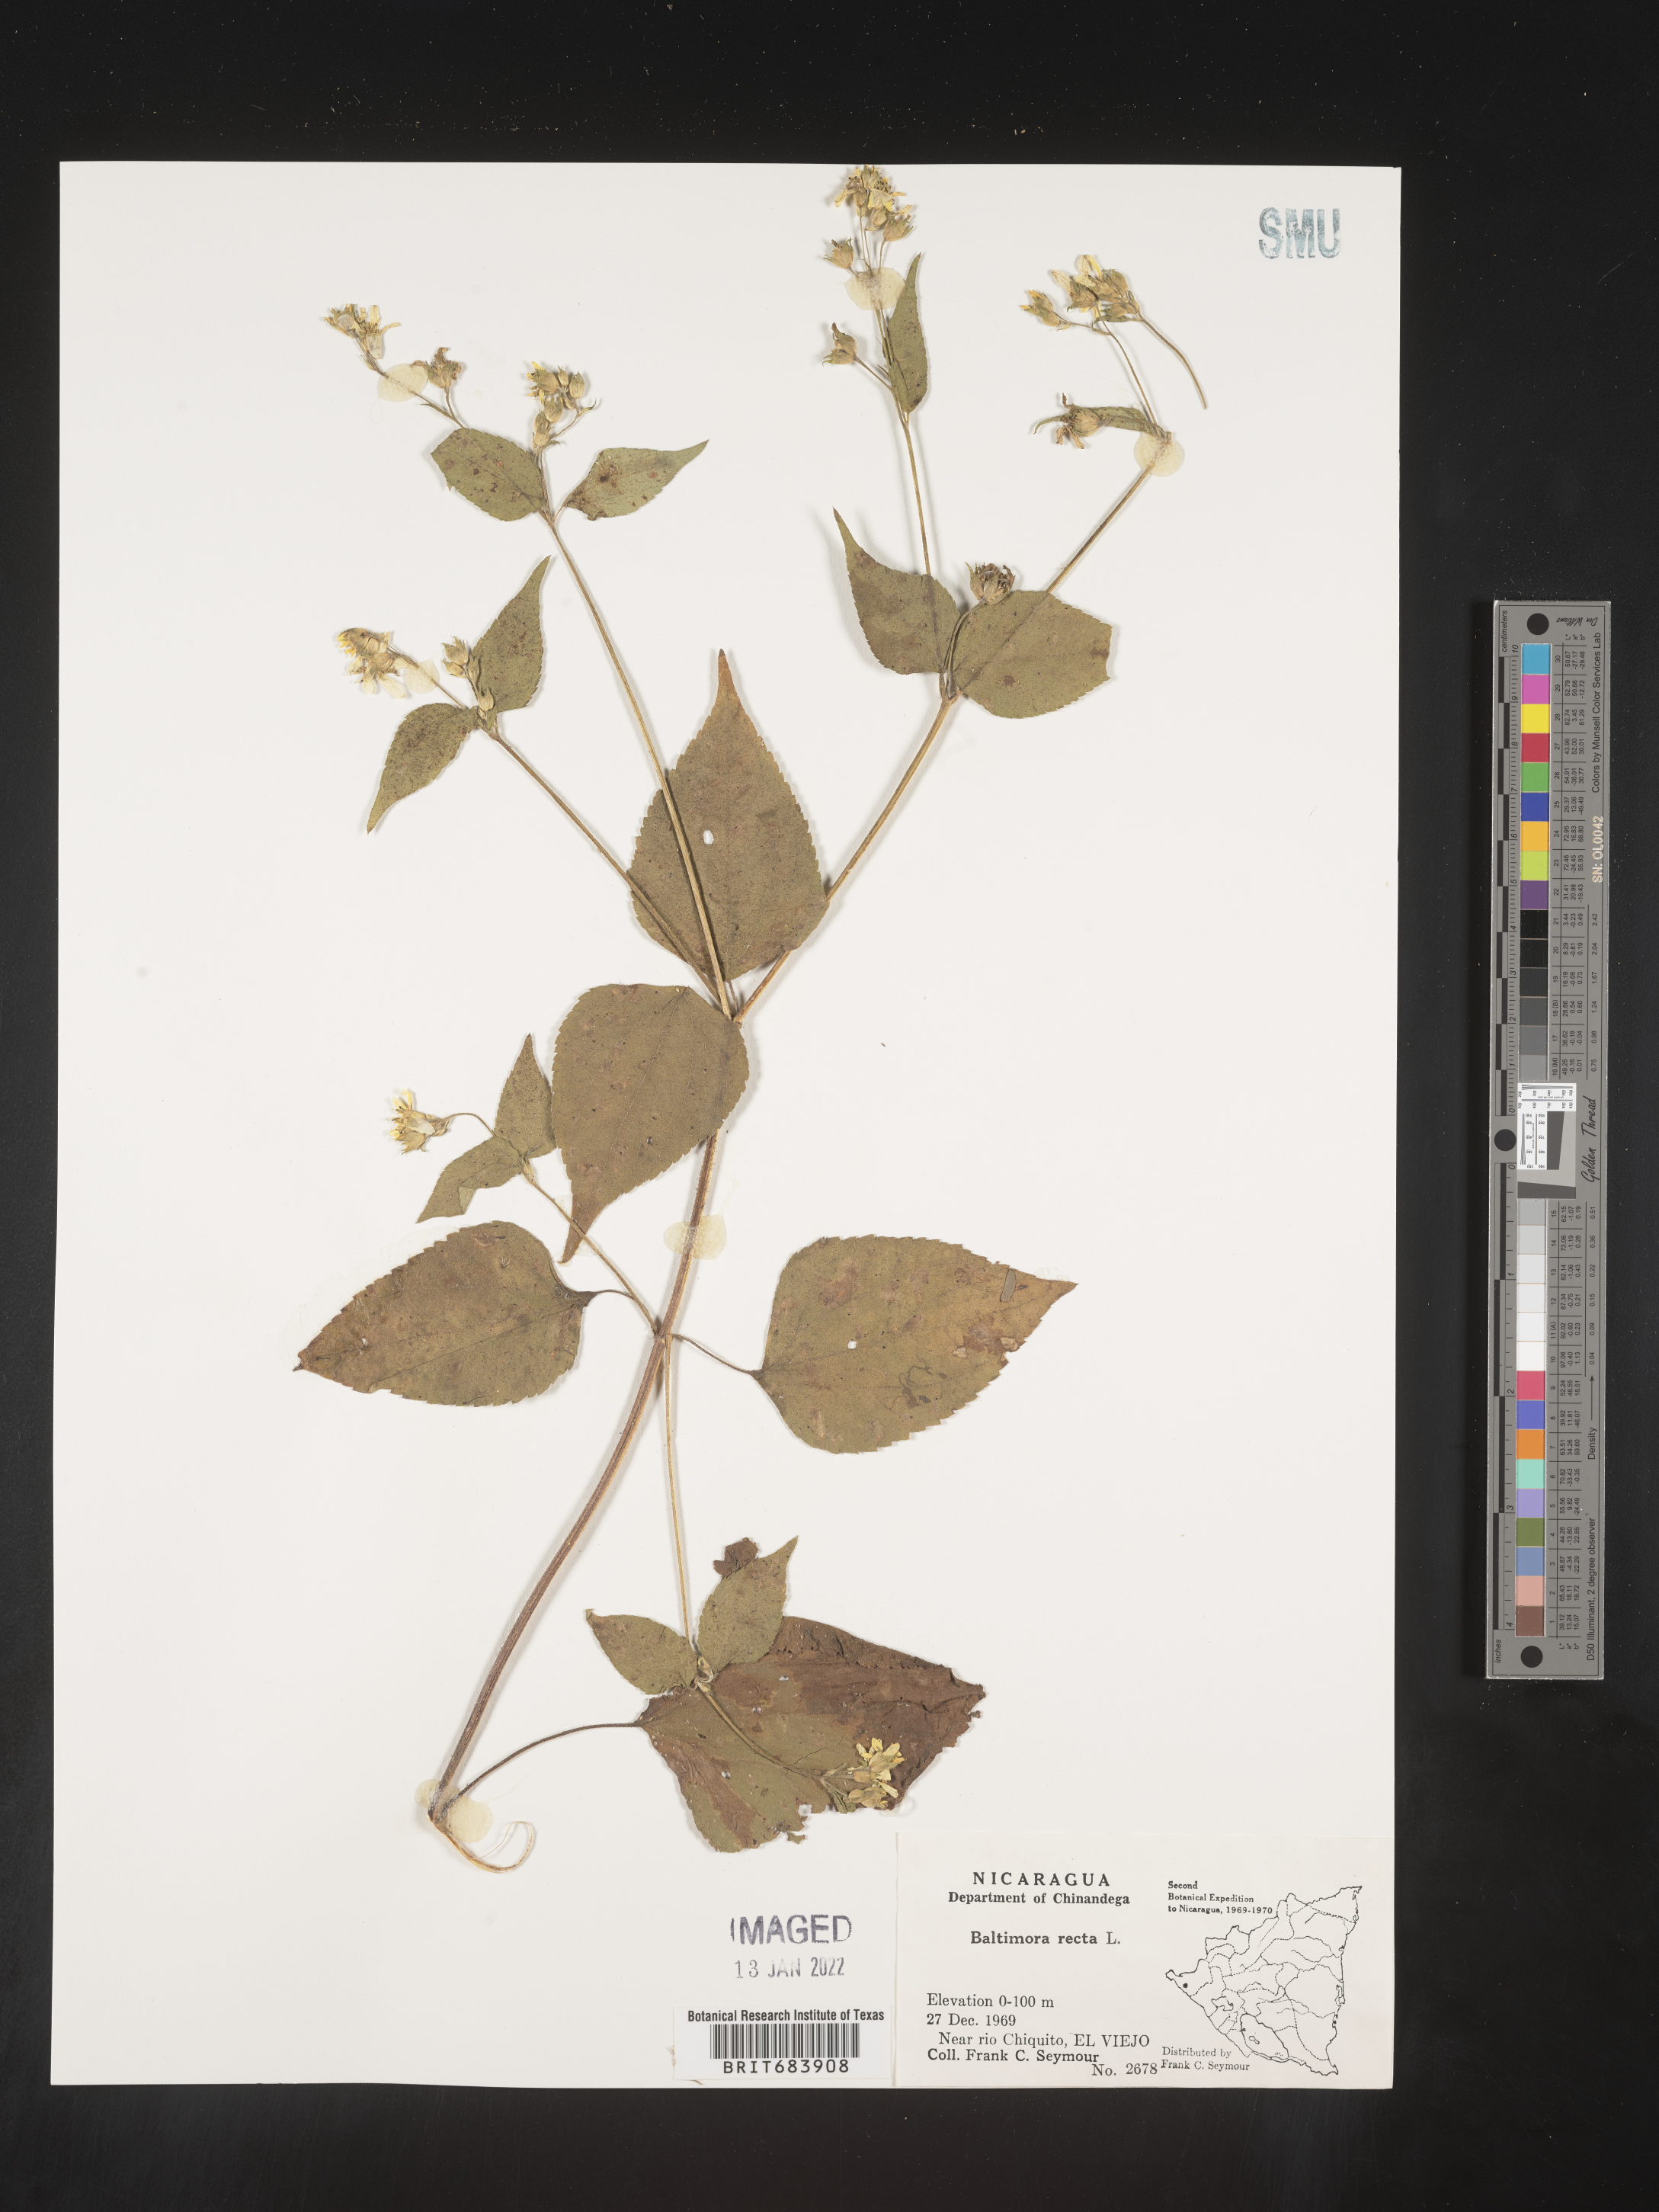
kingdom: Plantae
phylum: Tracheophyta
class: Magnoliopsida
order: Asterales
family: Asteraceae
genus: Baltimora
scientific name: Baltimora
